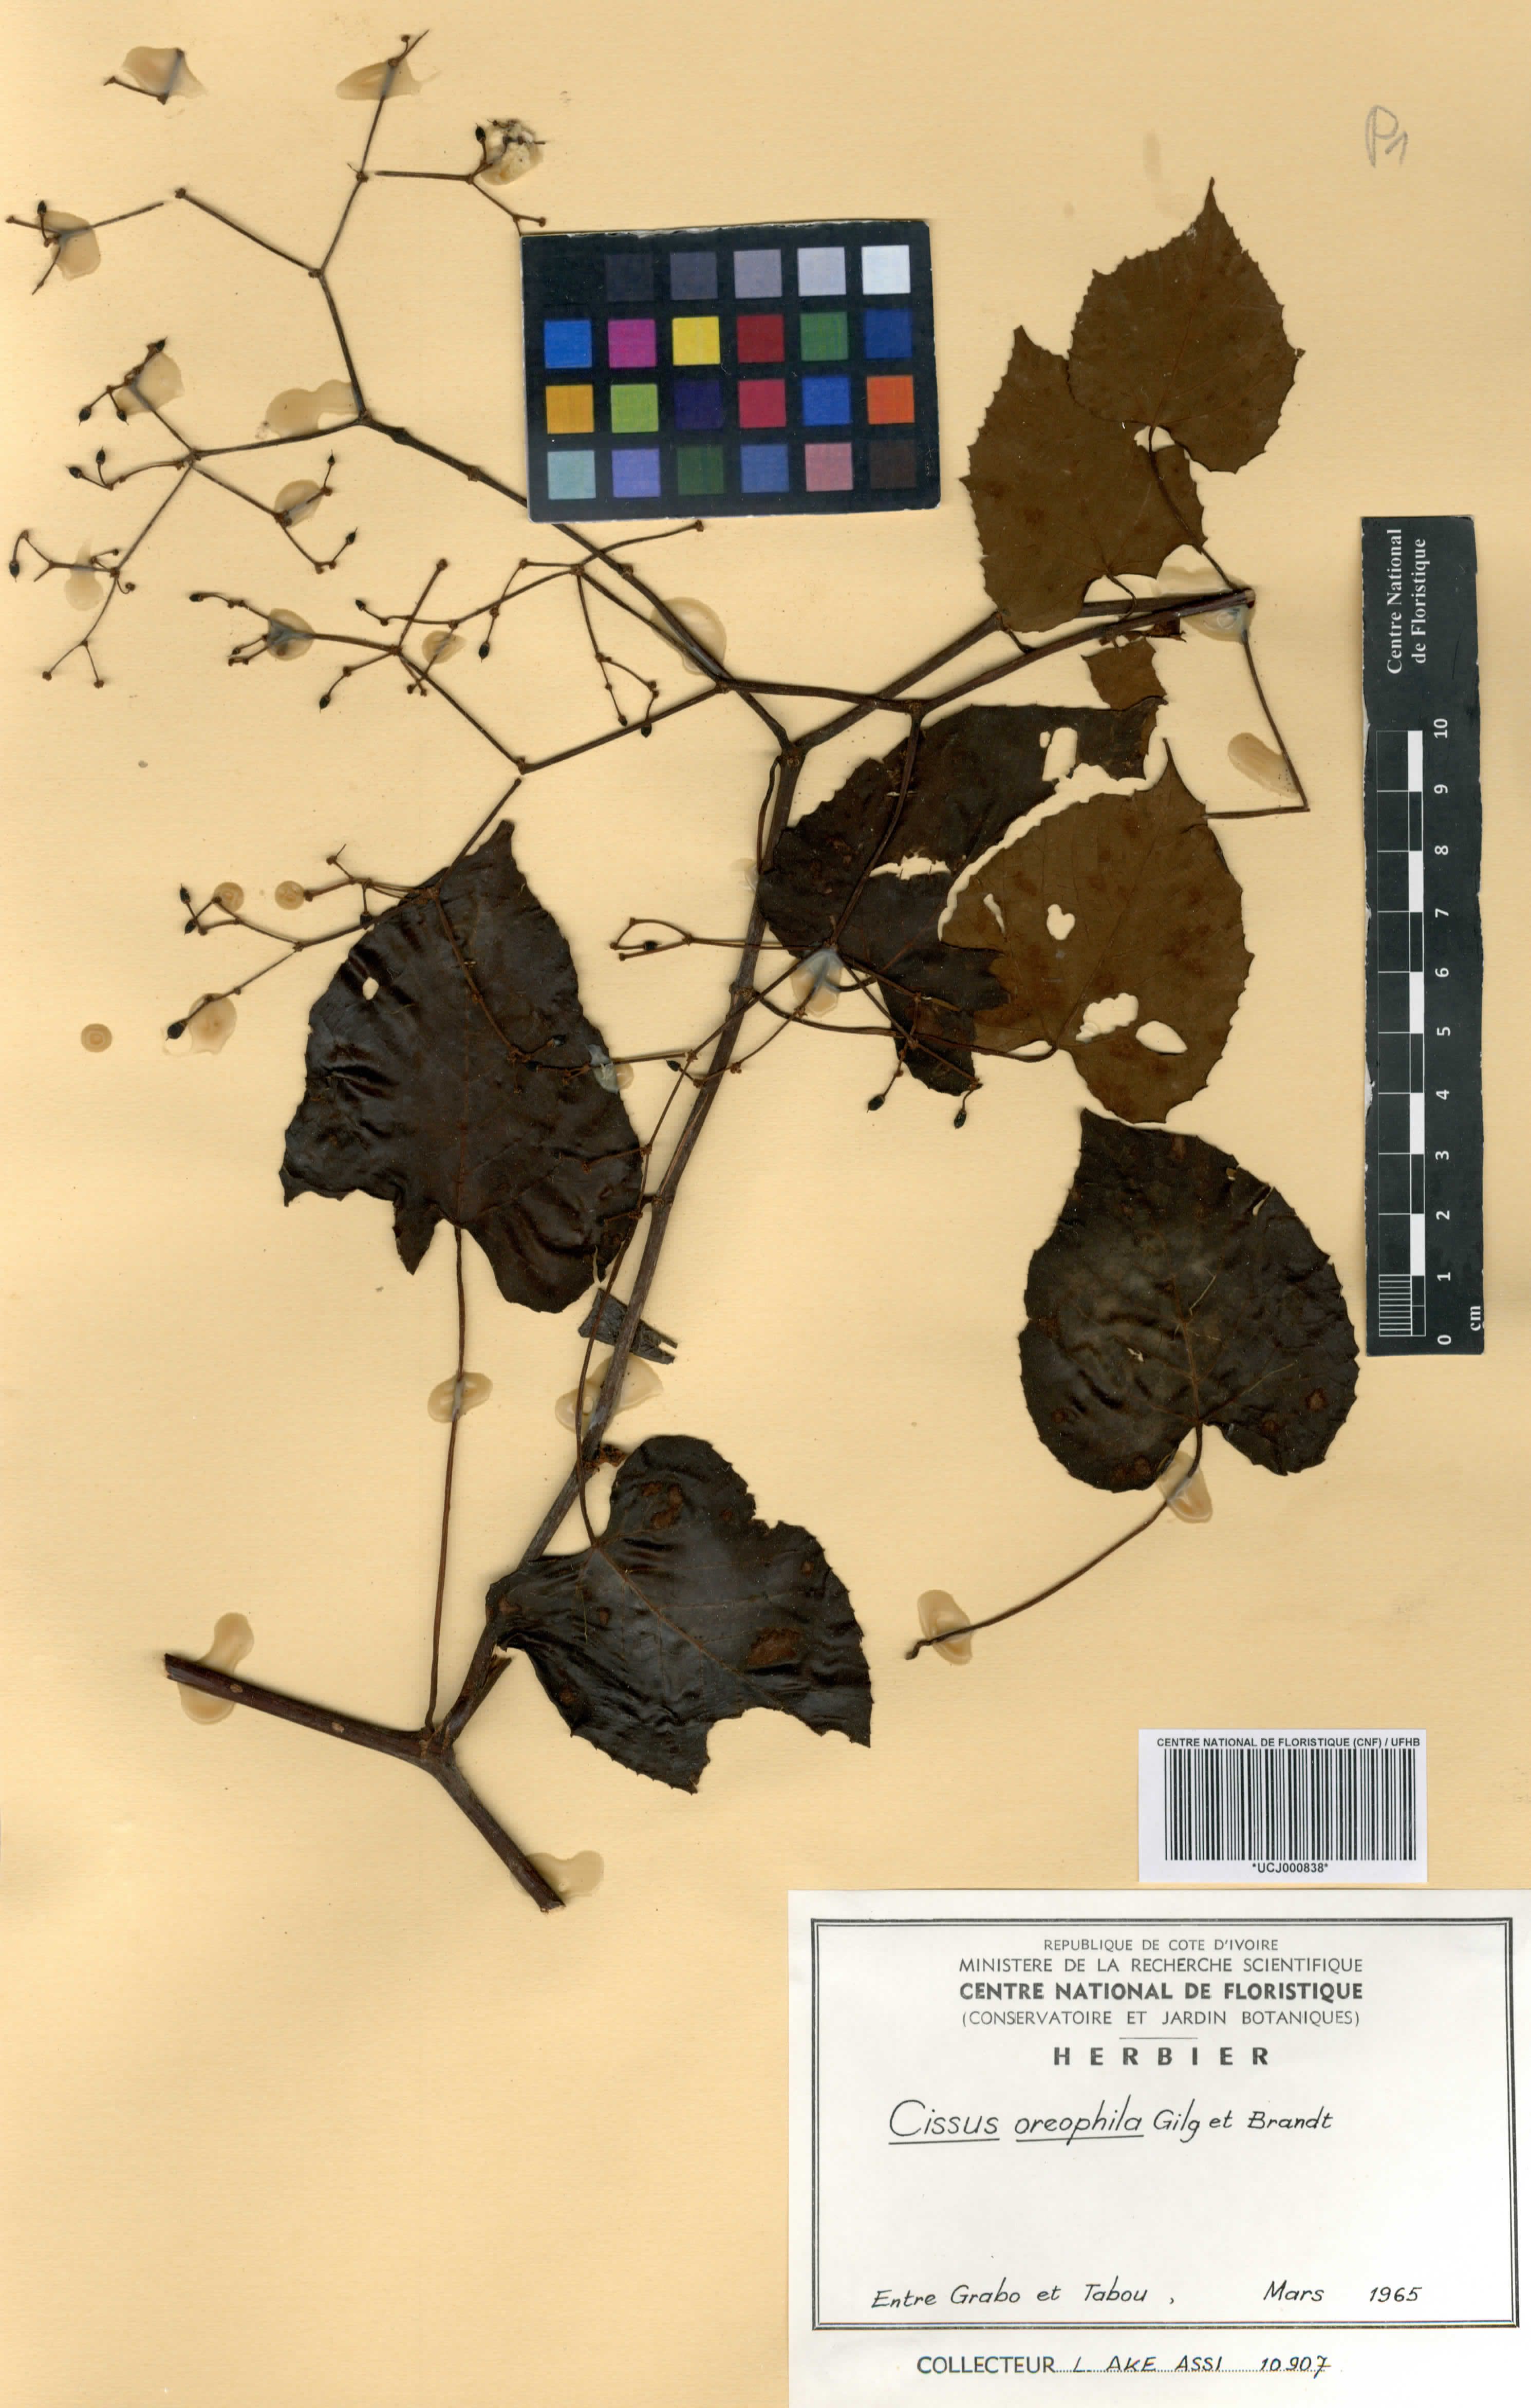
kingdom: Plantae
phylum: Tracheophyta
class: Magnoliopsida
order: Vitales
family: Vitaceae
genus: Cissus
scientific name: Cissus oreophila
